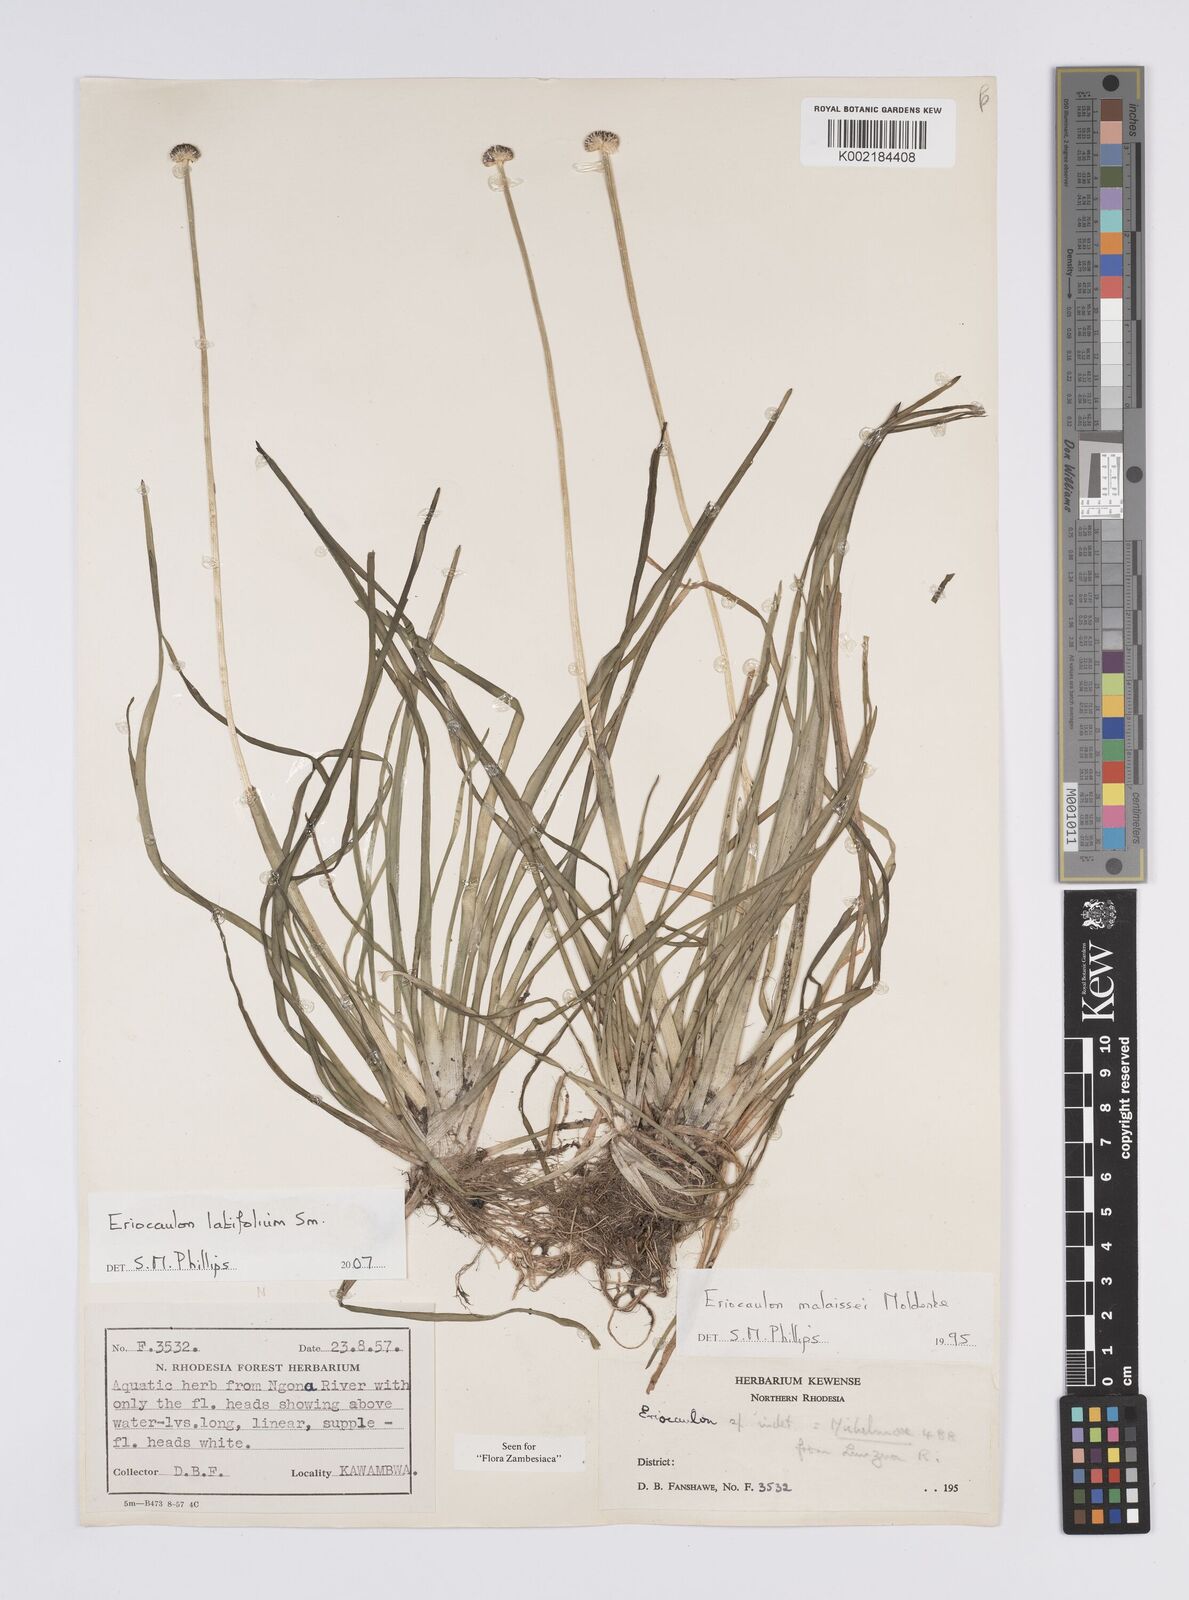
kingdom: Plantae
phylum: Tracheophyta
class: Liliopsida
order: Poales
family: Eriocaulaceae
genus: Eriocaulon
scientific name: Eriocaulon latifolium
